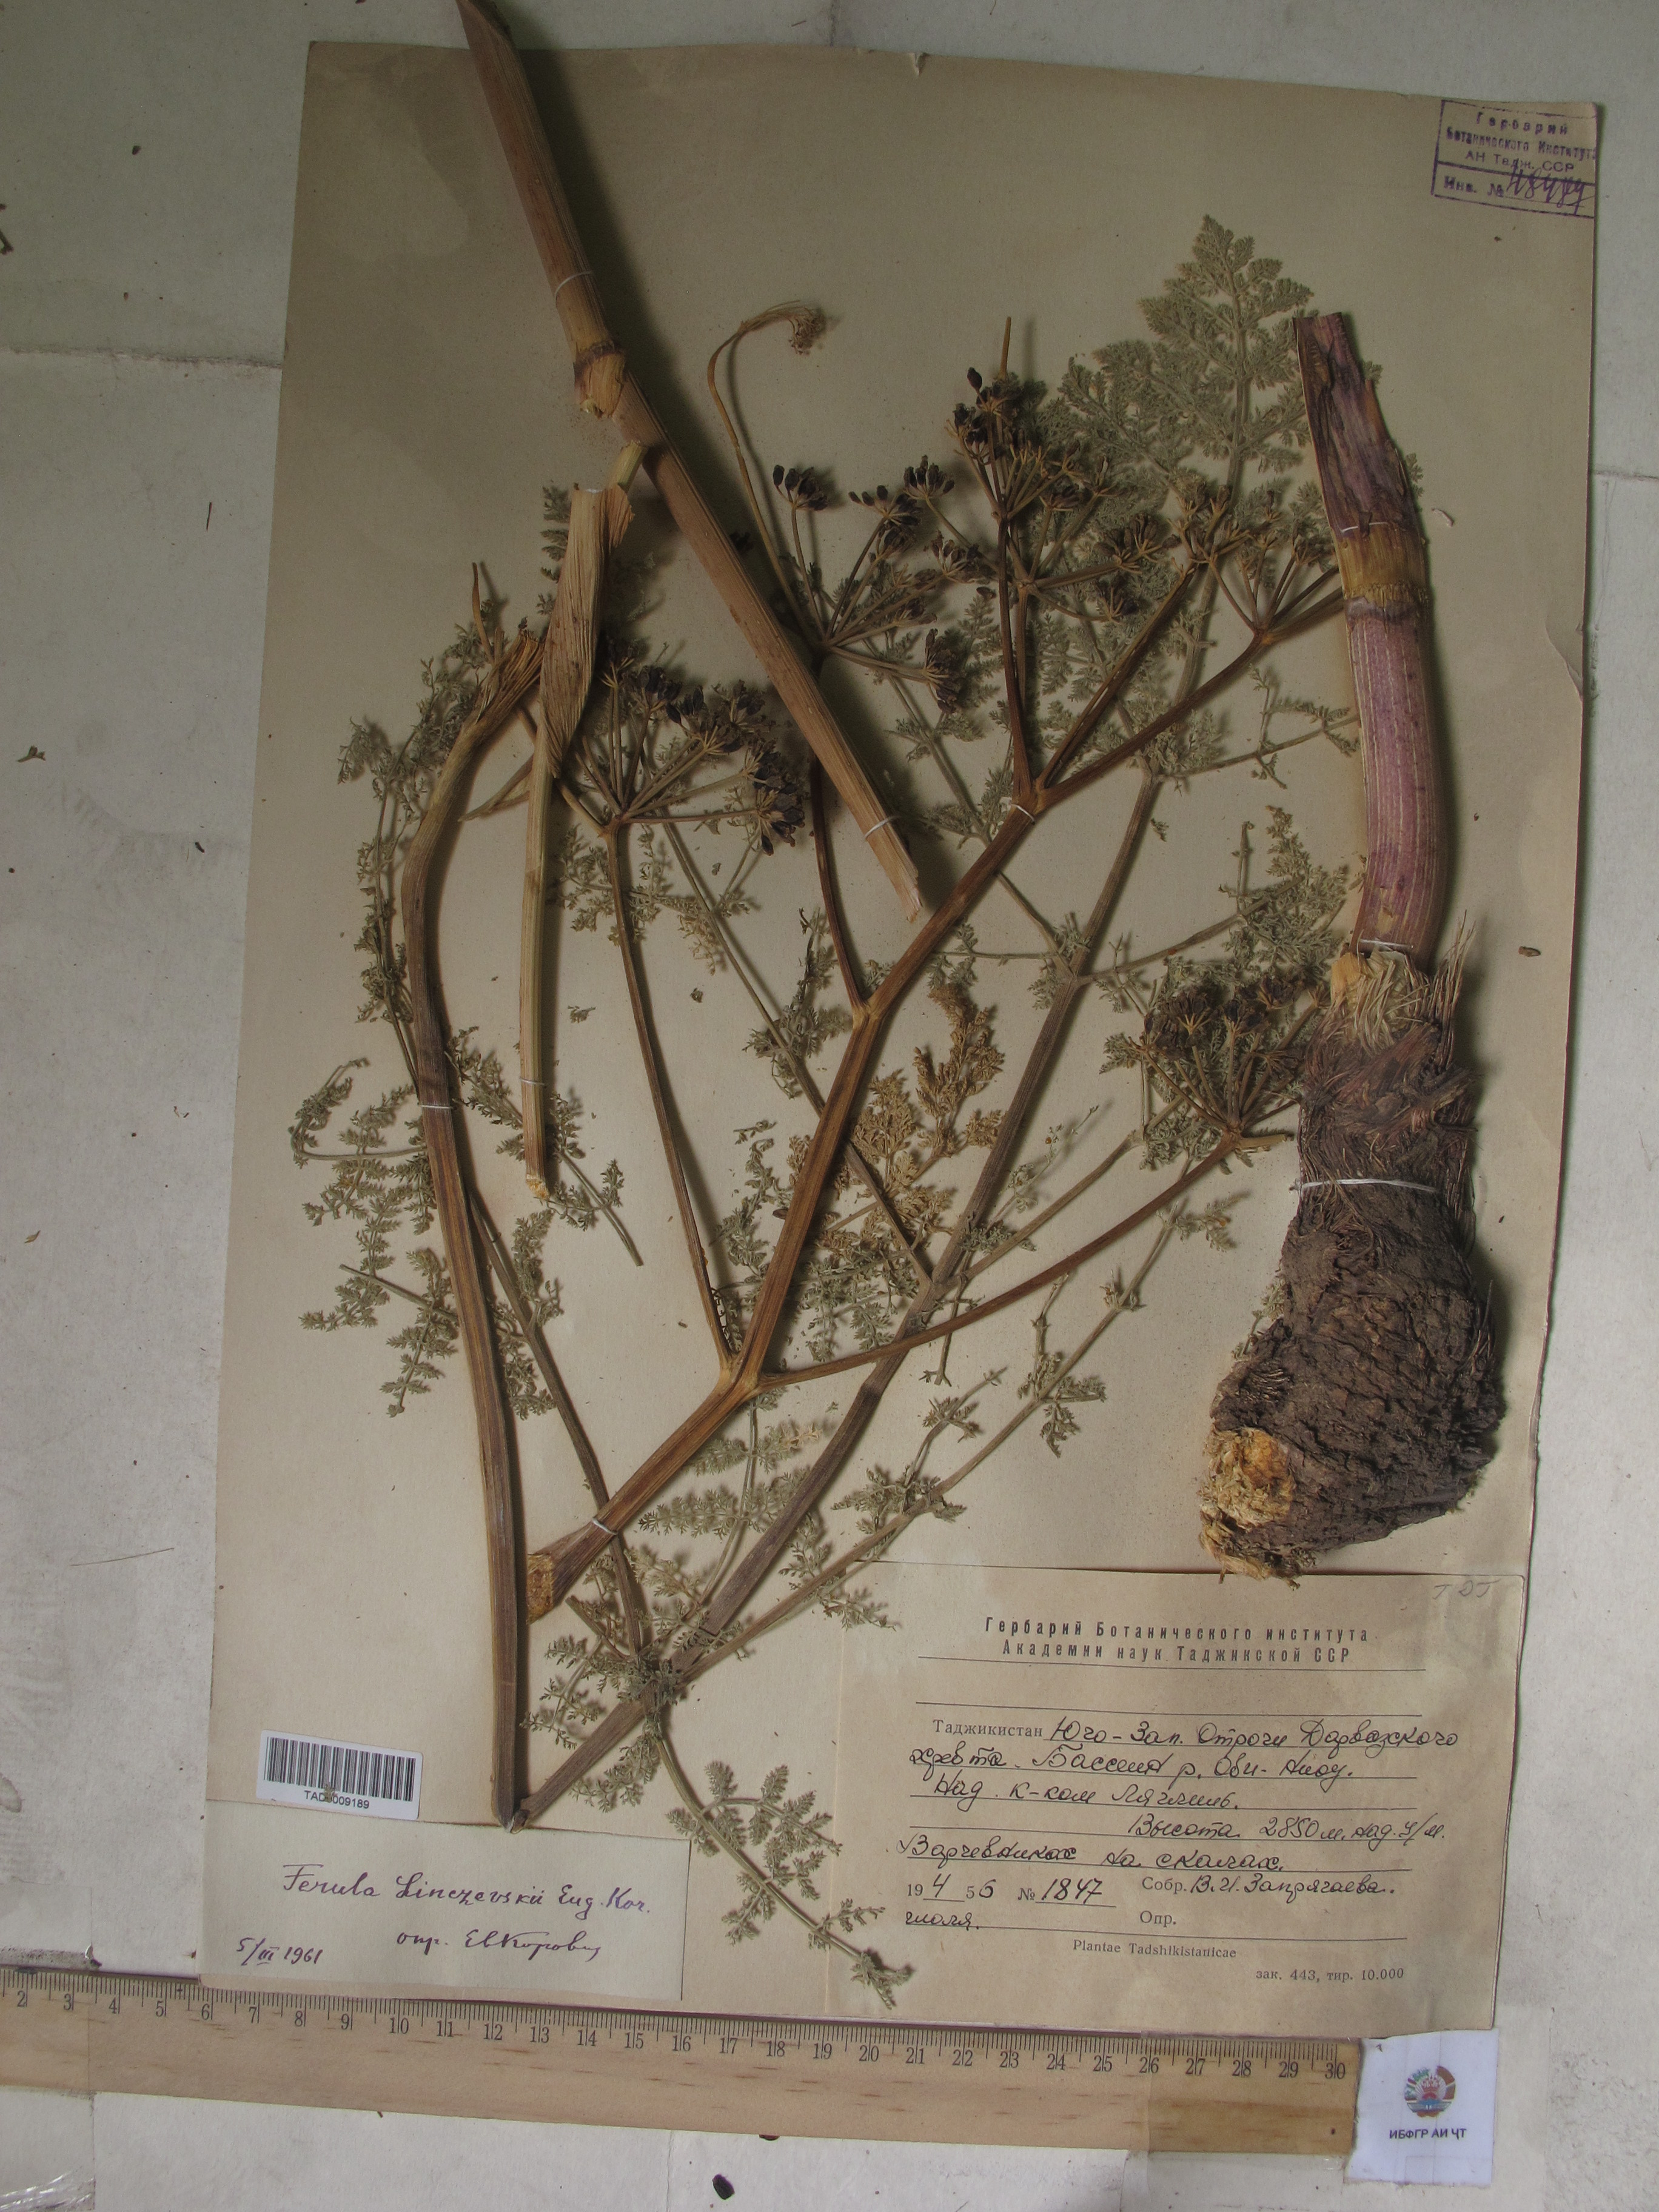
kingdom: Plantae
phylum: Tracheophyta
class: Magnoliopsida
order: Apiales
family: Apiaceae
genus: Ferula
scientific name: Ferula linczevskii
